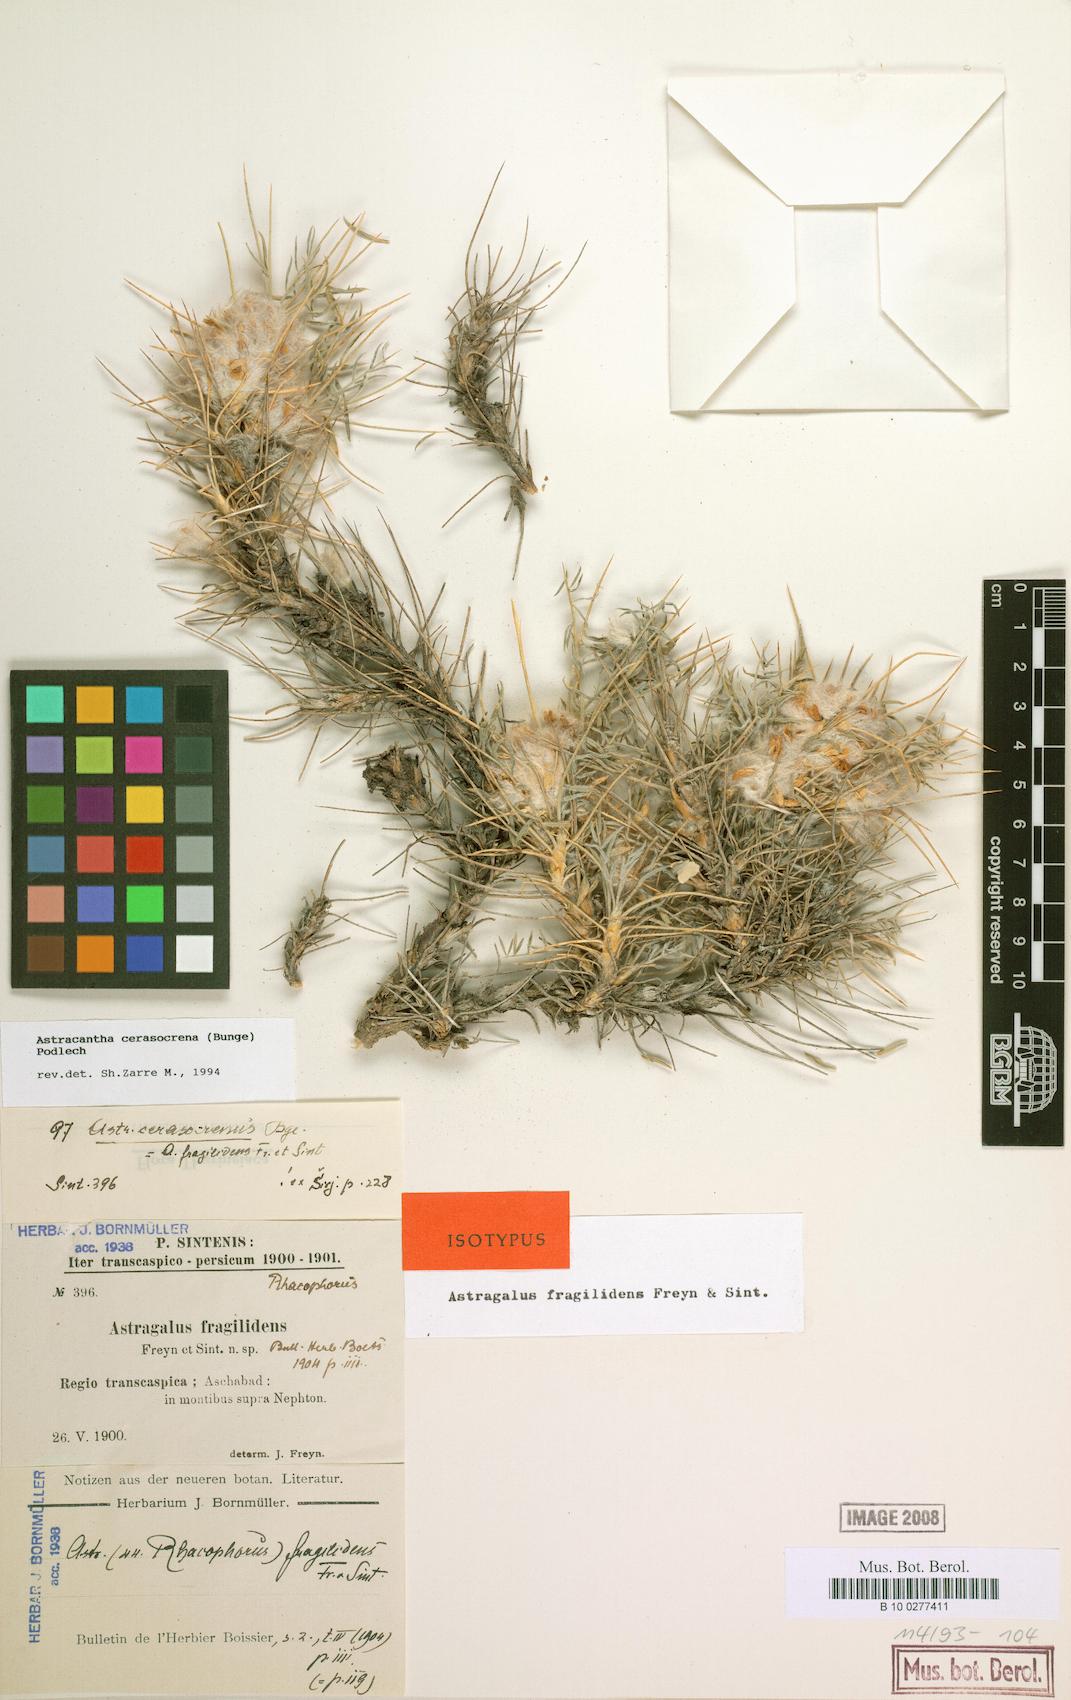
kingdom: Plantae
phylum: Tracheophyta
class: Magnoliopsida
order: Fabales
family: Fabaceae
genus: Astragalus
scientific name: Astragalus cerasocrenus
